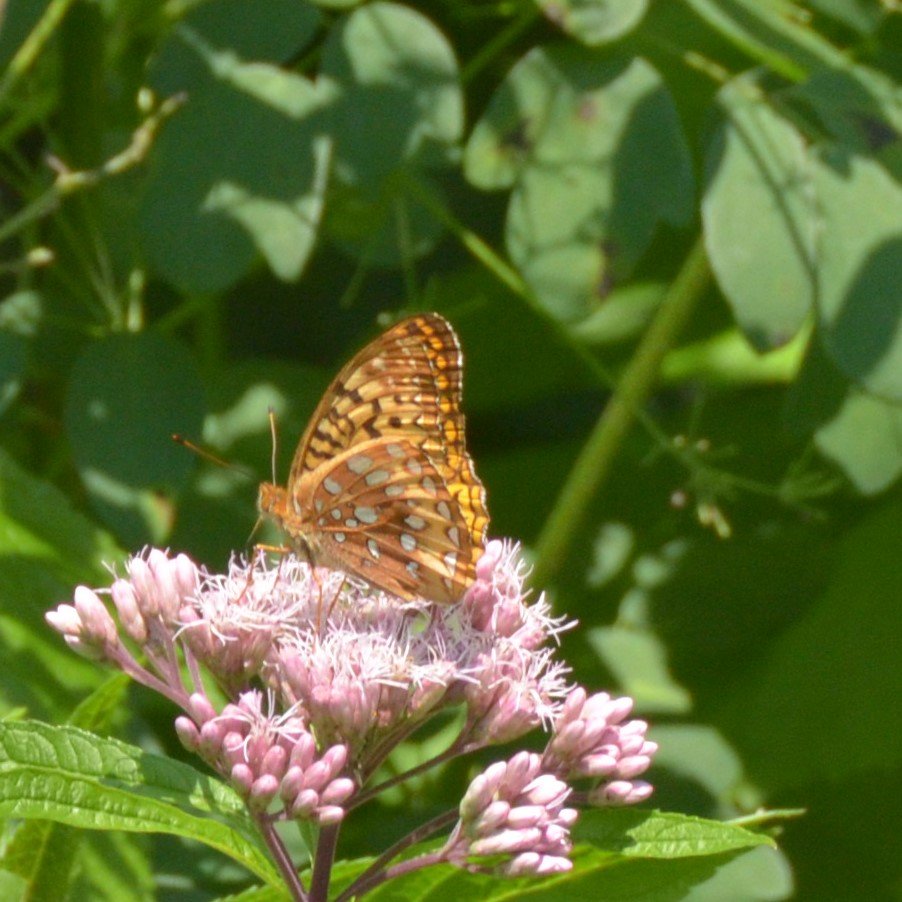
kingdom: Animalia
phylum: Arthropoda
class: Insecta
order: Lepidoptera
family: Nymphalidae
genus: Speyeria
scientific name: Speyeria cybele
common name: Great Spangled Fritillary
